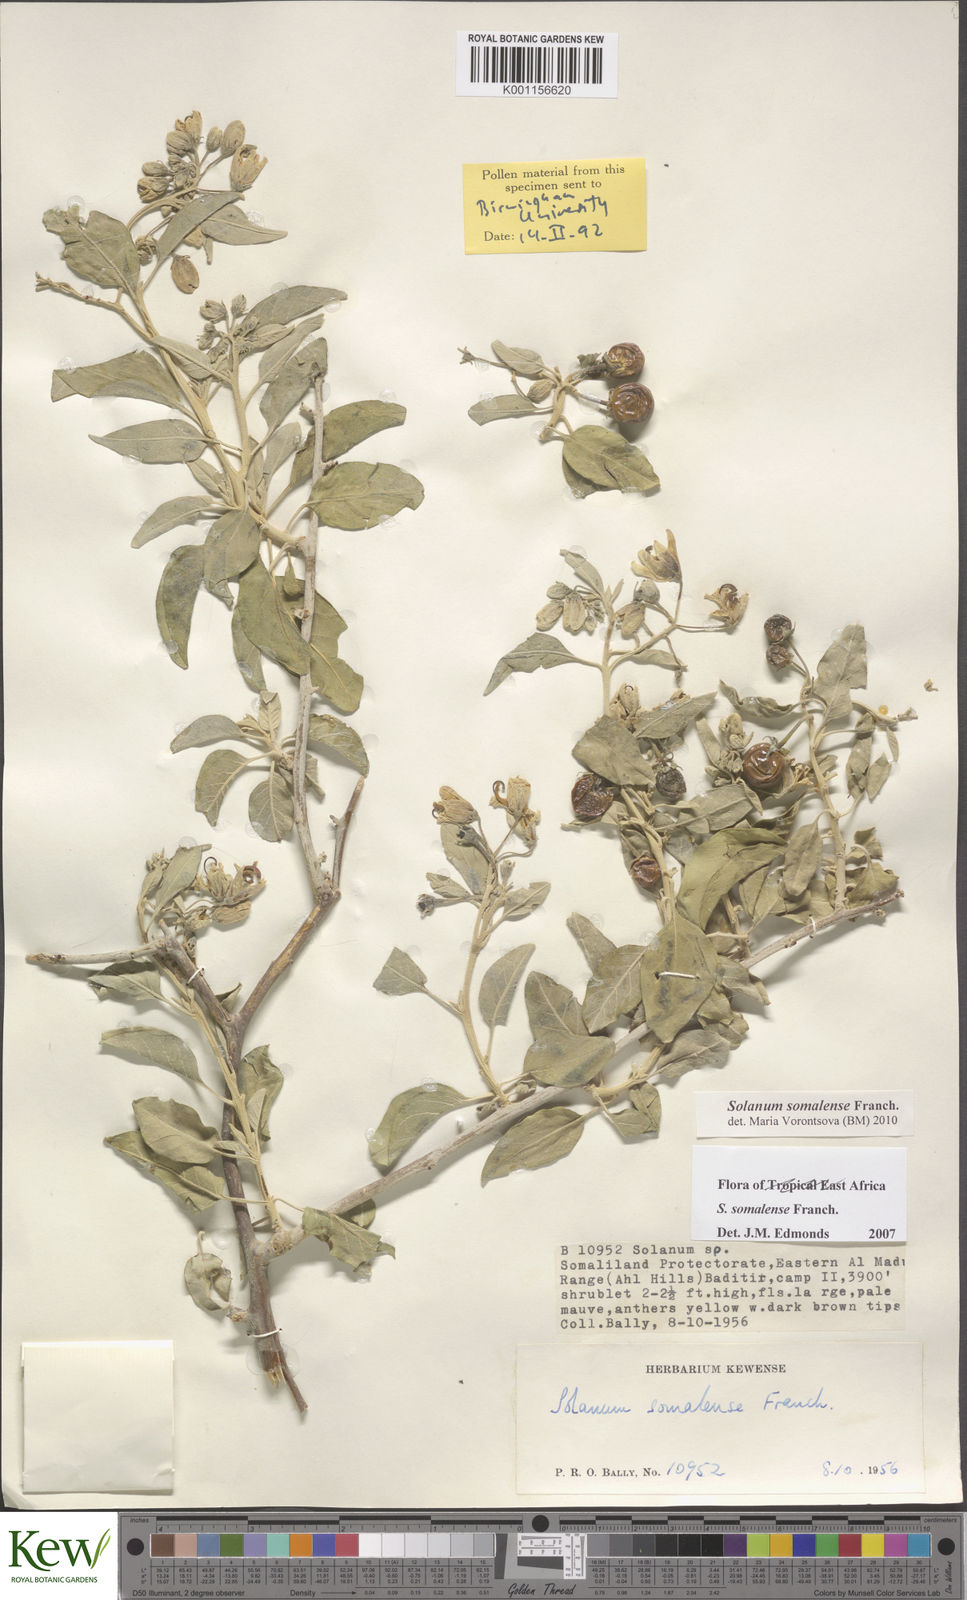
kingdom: Plantae
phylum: Tracheophyta
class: Magnoliopsida
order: Solanales
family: Solanaceae
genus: Solanum
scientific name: Solanum somalense
